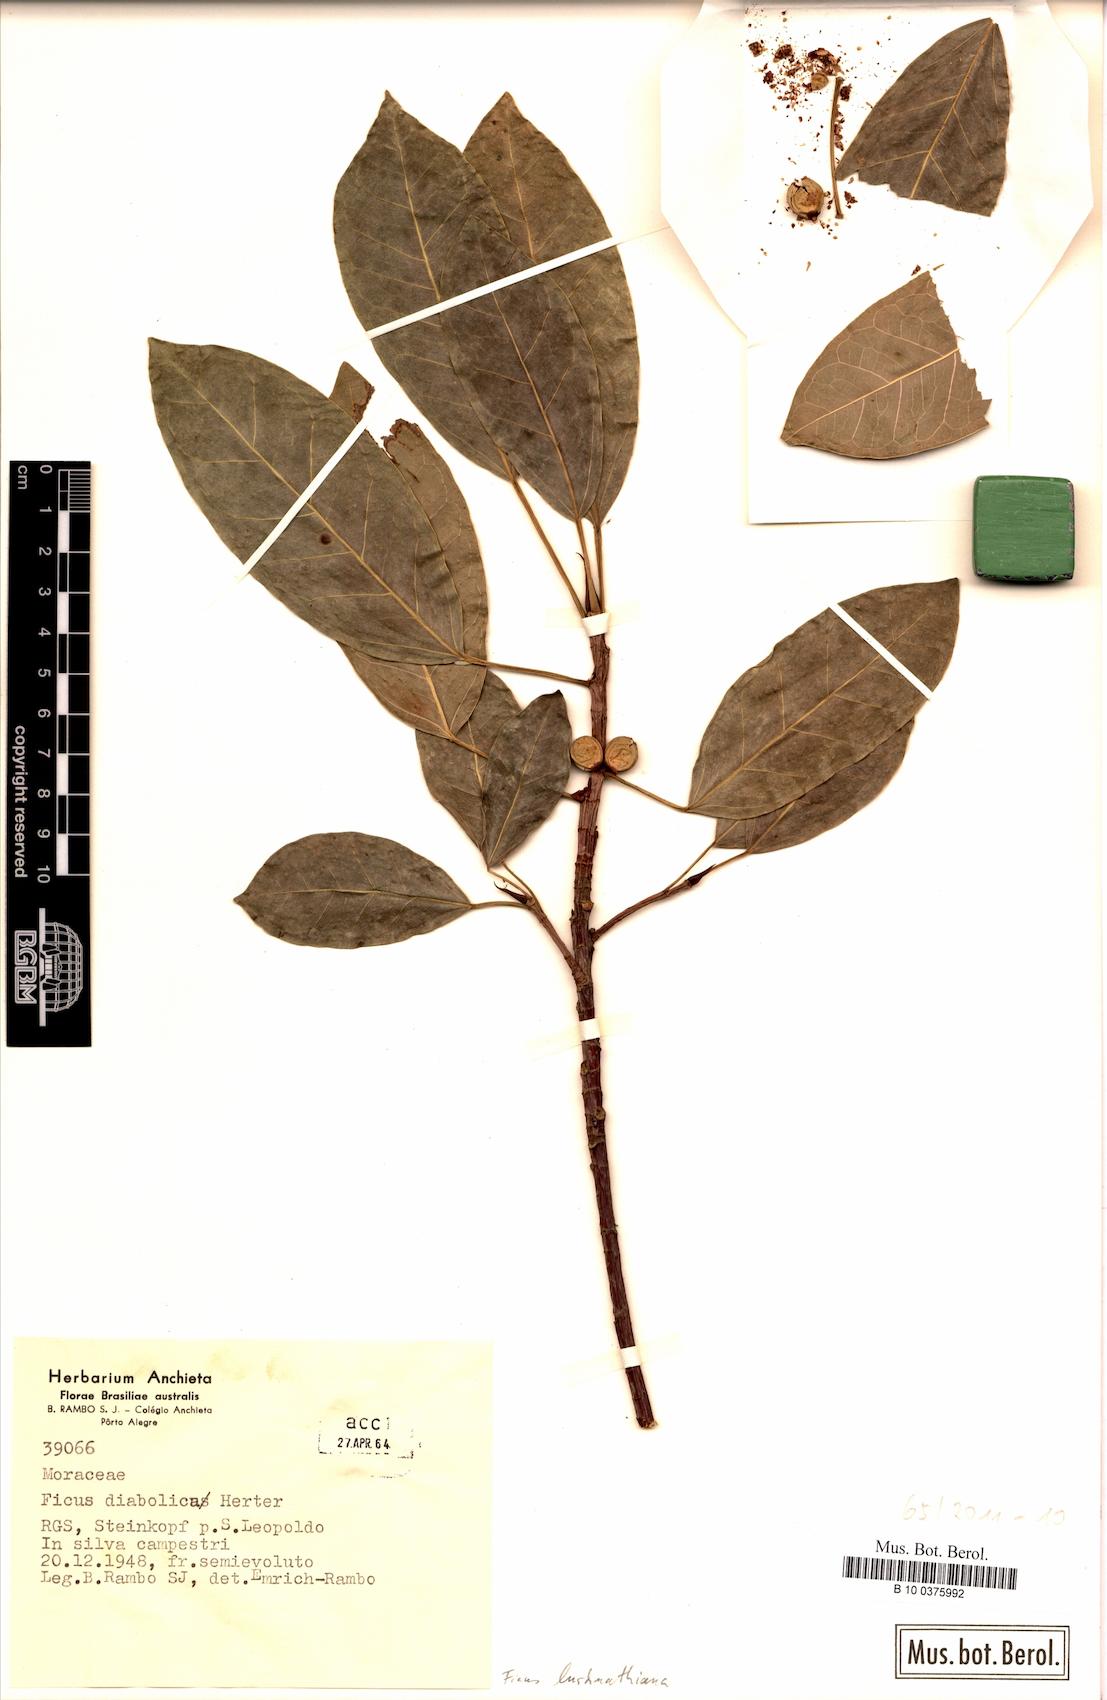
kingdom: Plantae
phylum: Tracheophyta
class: Magnoliopsida
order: Rosales
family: Moraceae
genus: Ficus
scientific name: Ficus luschnathiana
